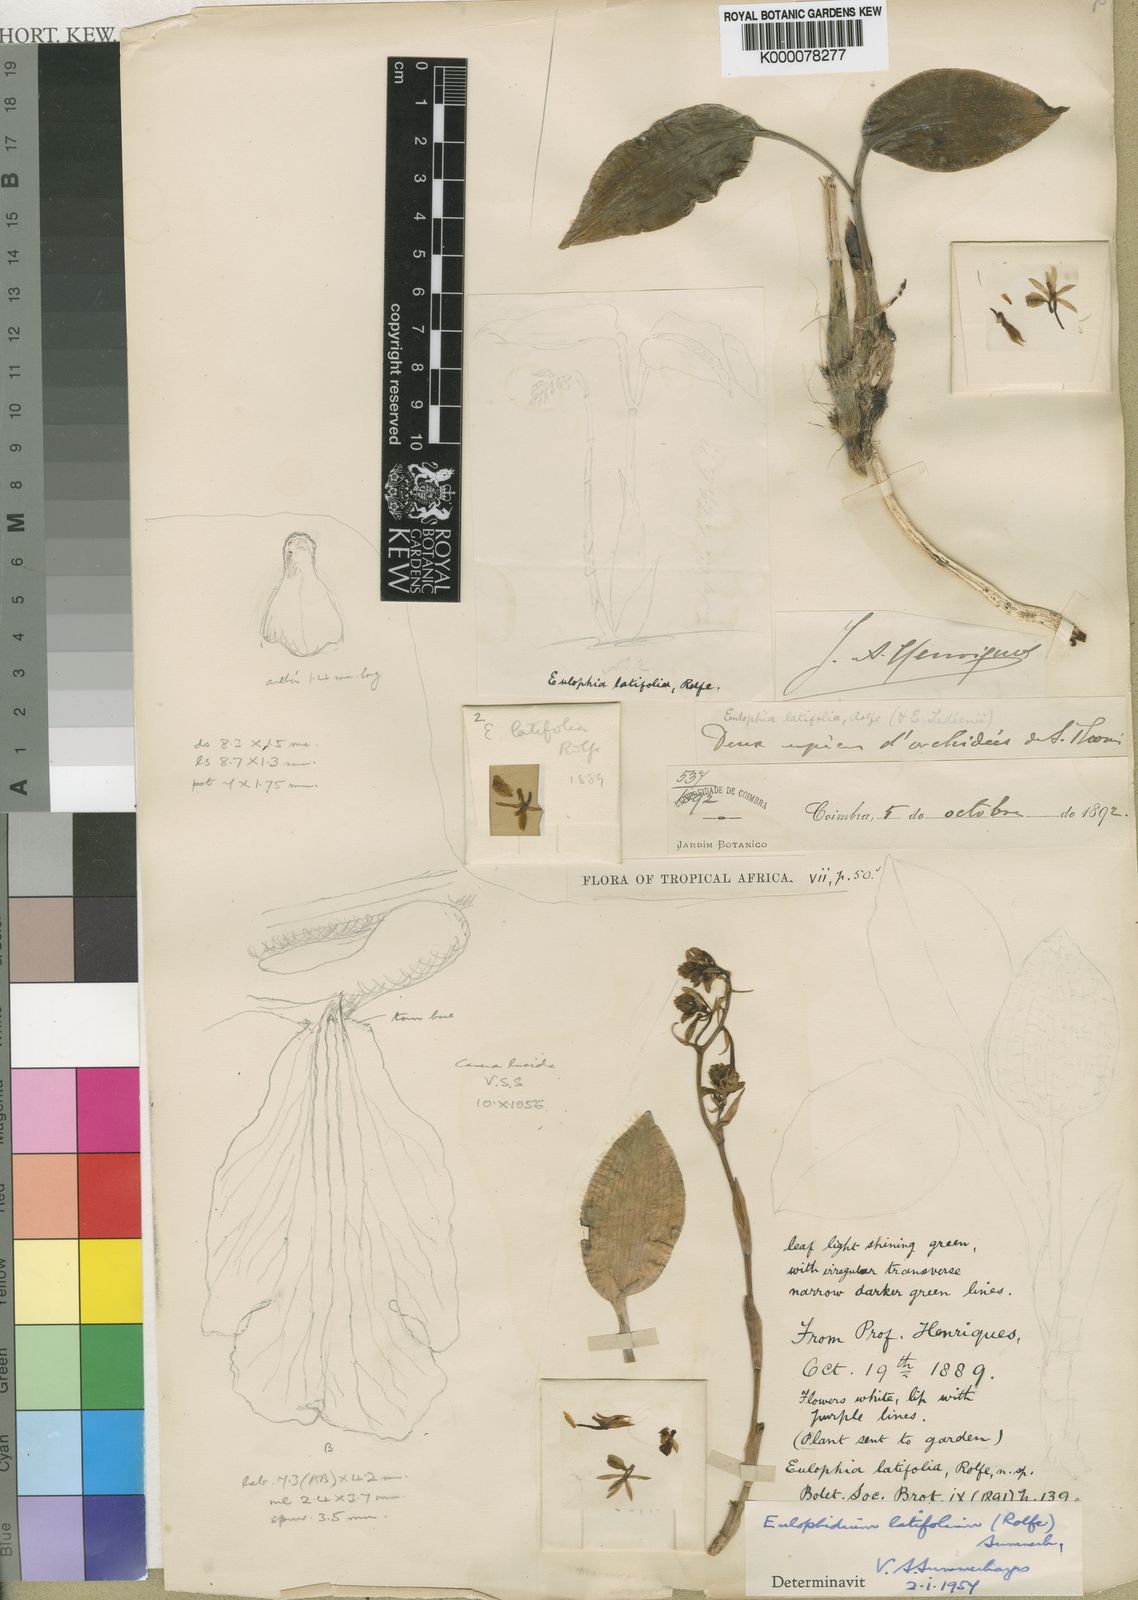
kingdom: Plantae
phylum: Tracheophyta
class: Liliopsida
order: Asparagales
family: Orchidaceae
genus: Eulophia
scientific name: Eulophia latifolia
